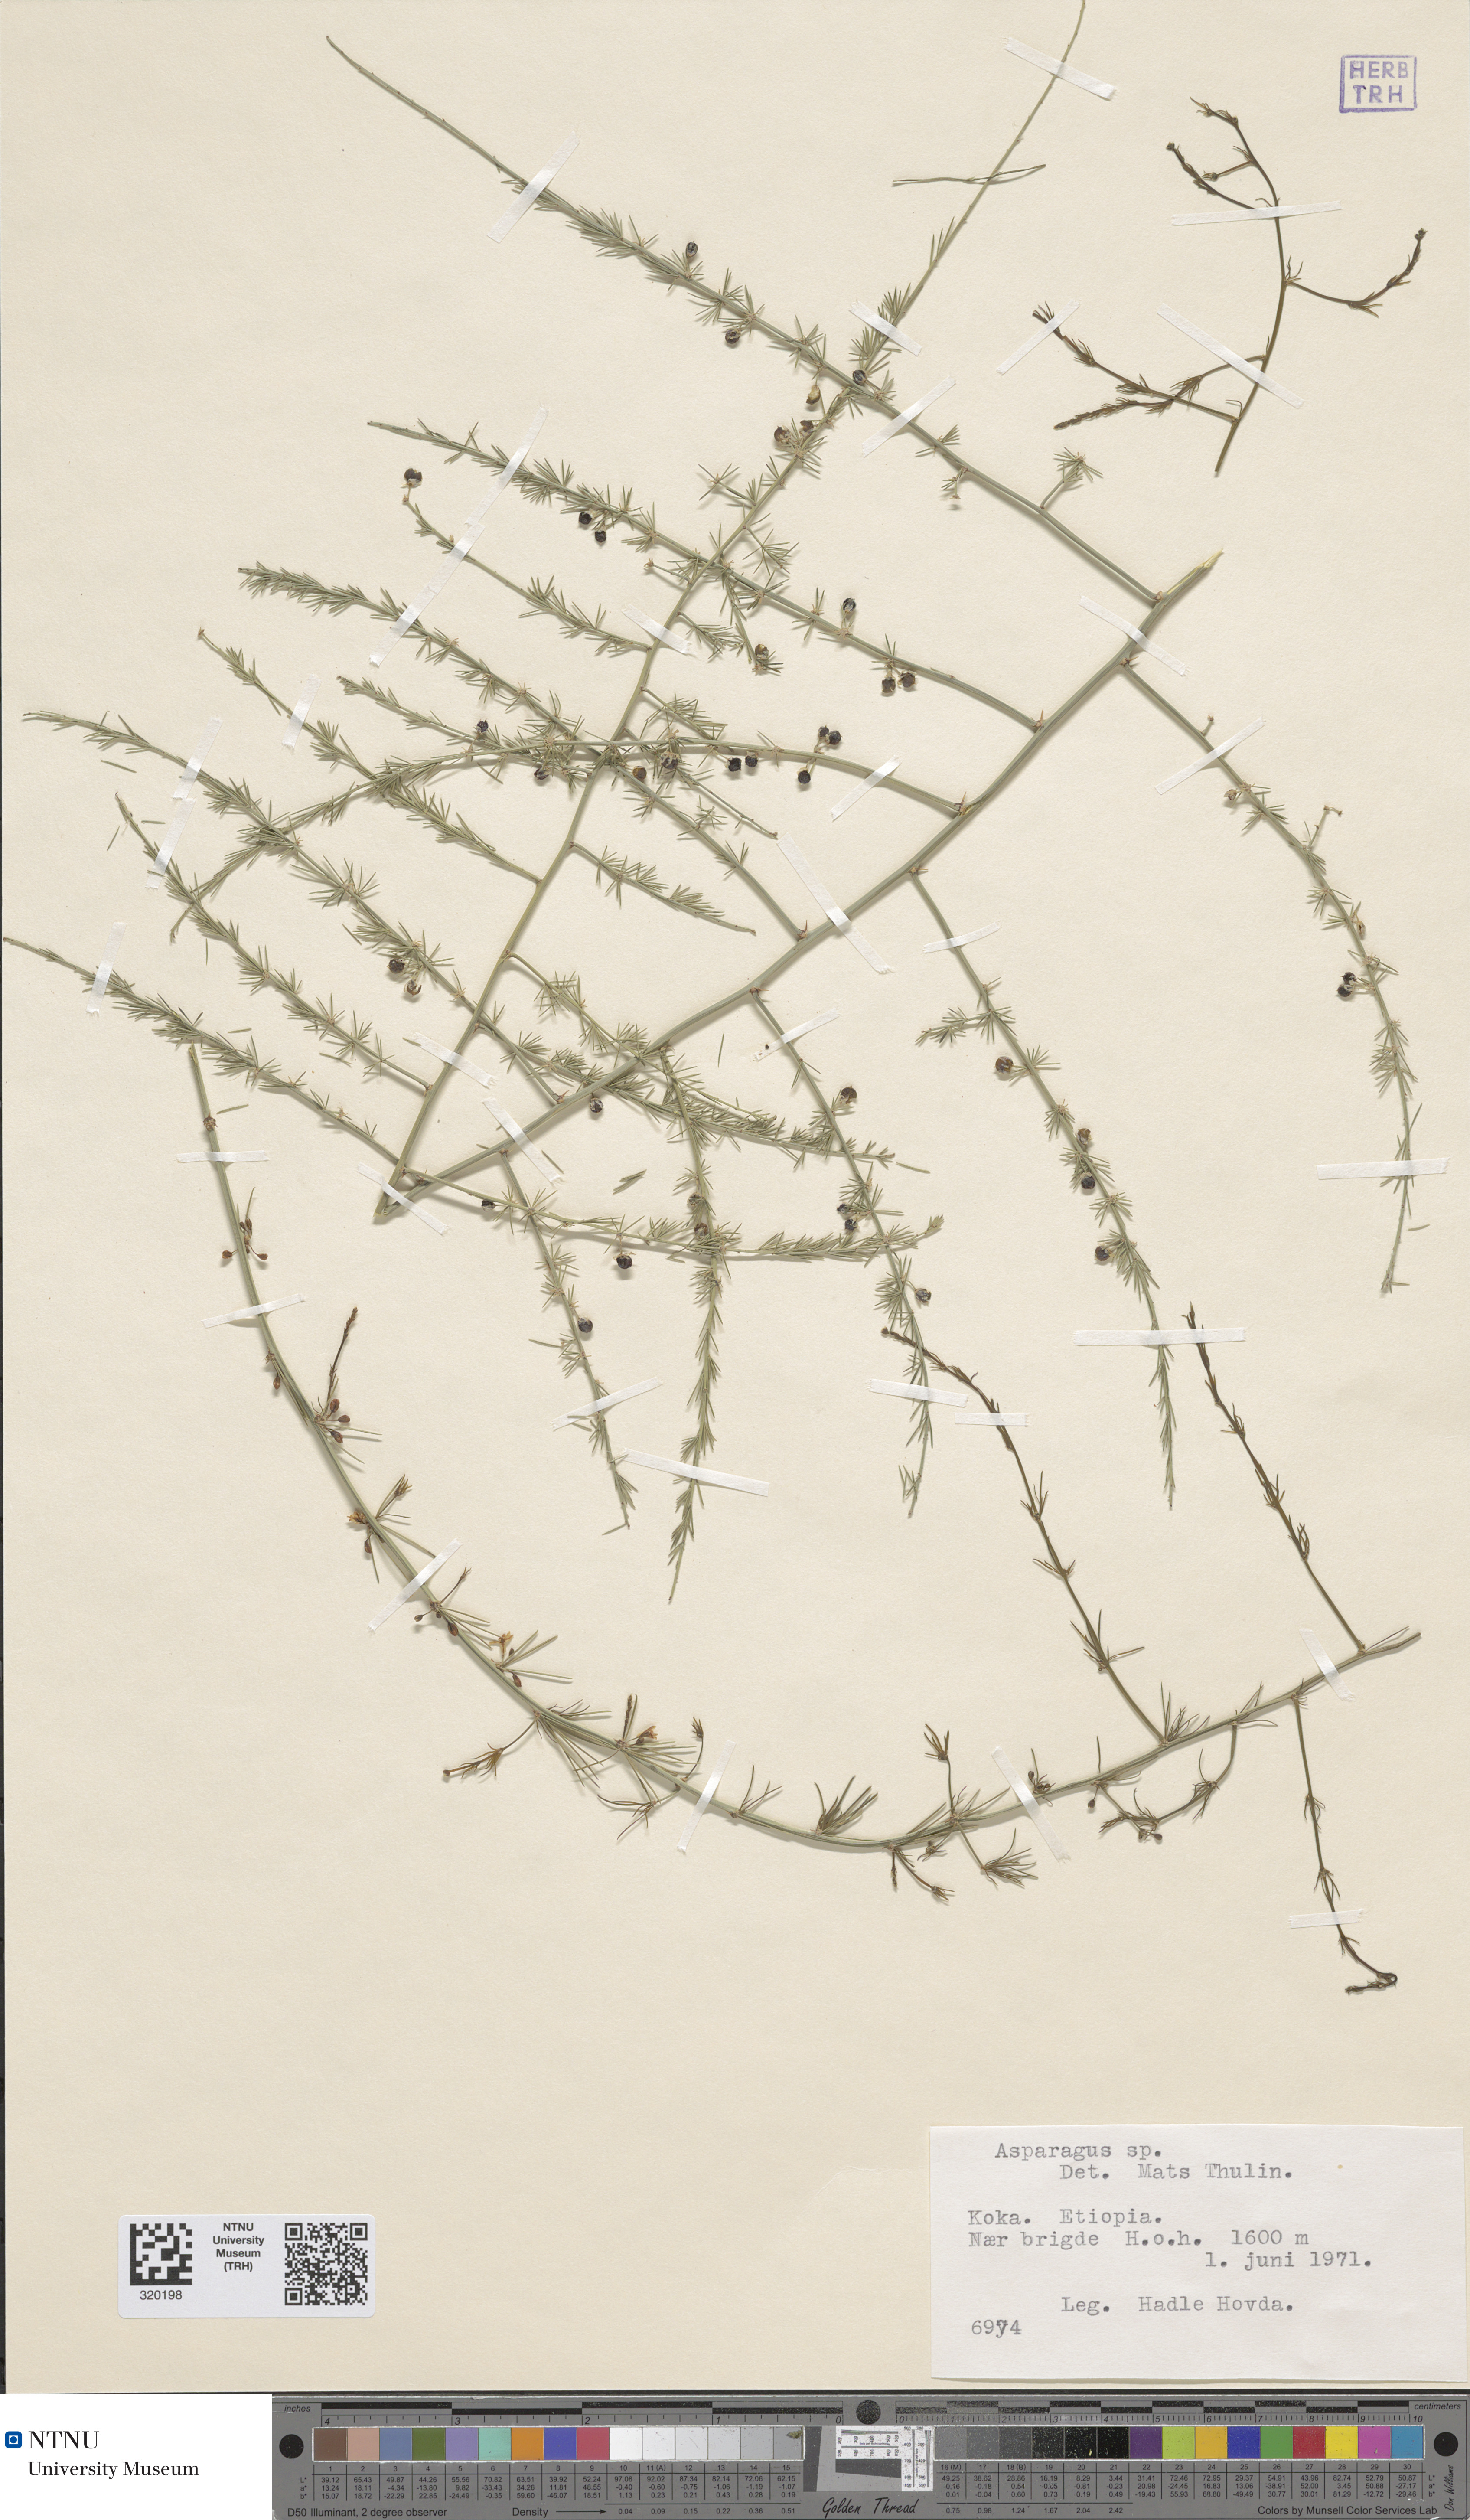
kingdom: Plantae
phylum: Tracheophyta
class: Liliopsida
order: Asparagales
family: Asparagaceae
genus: Asparagus
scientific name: Asparagus
